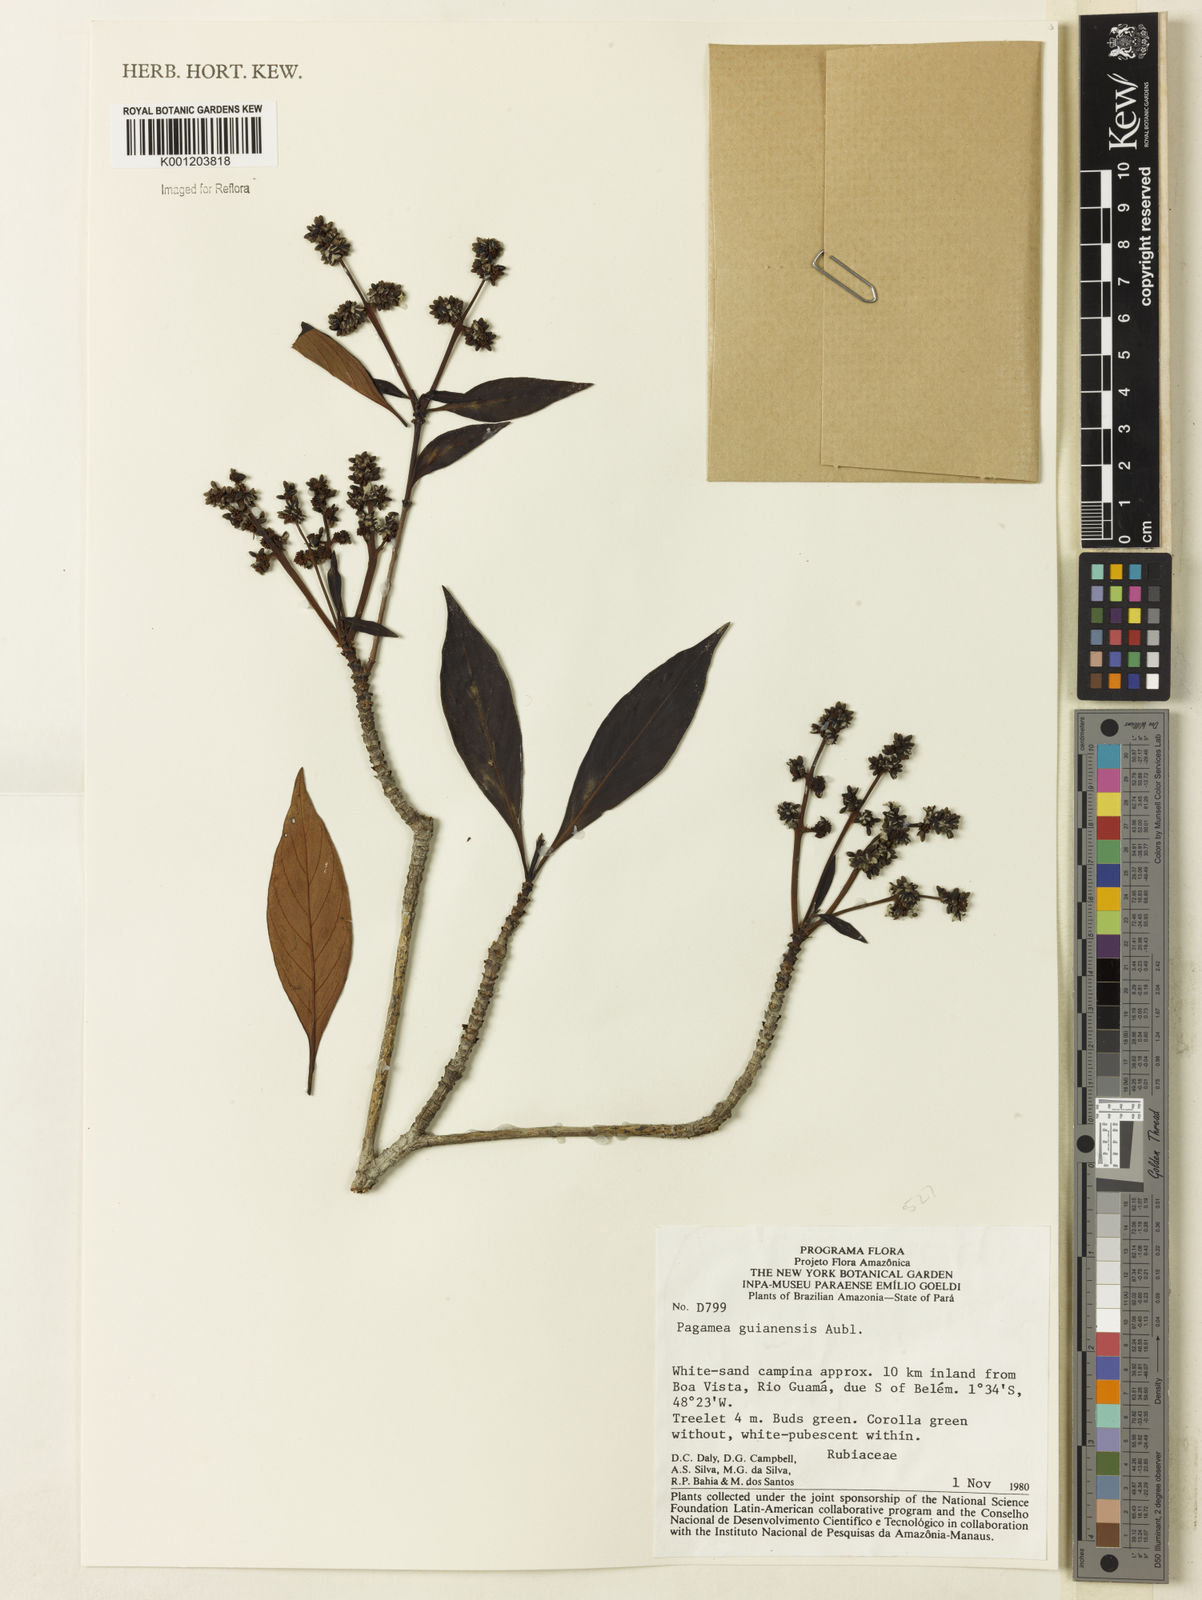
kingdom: Plantae
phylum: Tracheophyta
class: Magnoliopsida
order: Gentianales
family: Rubiaceae
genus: Pagamea
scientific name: Pagamea guianensis
